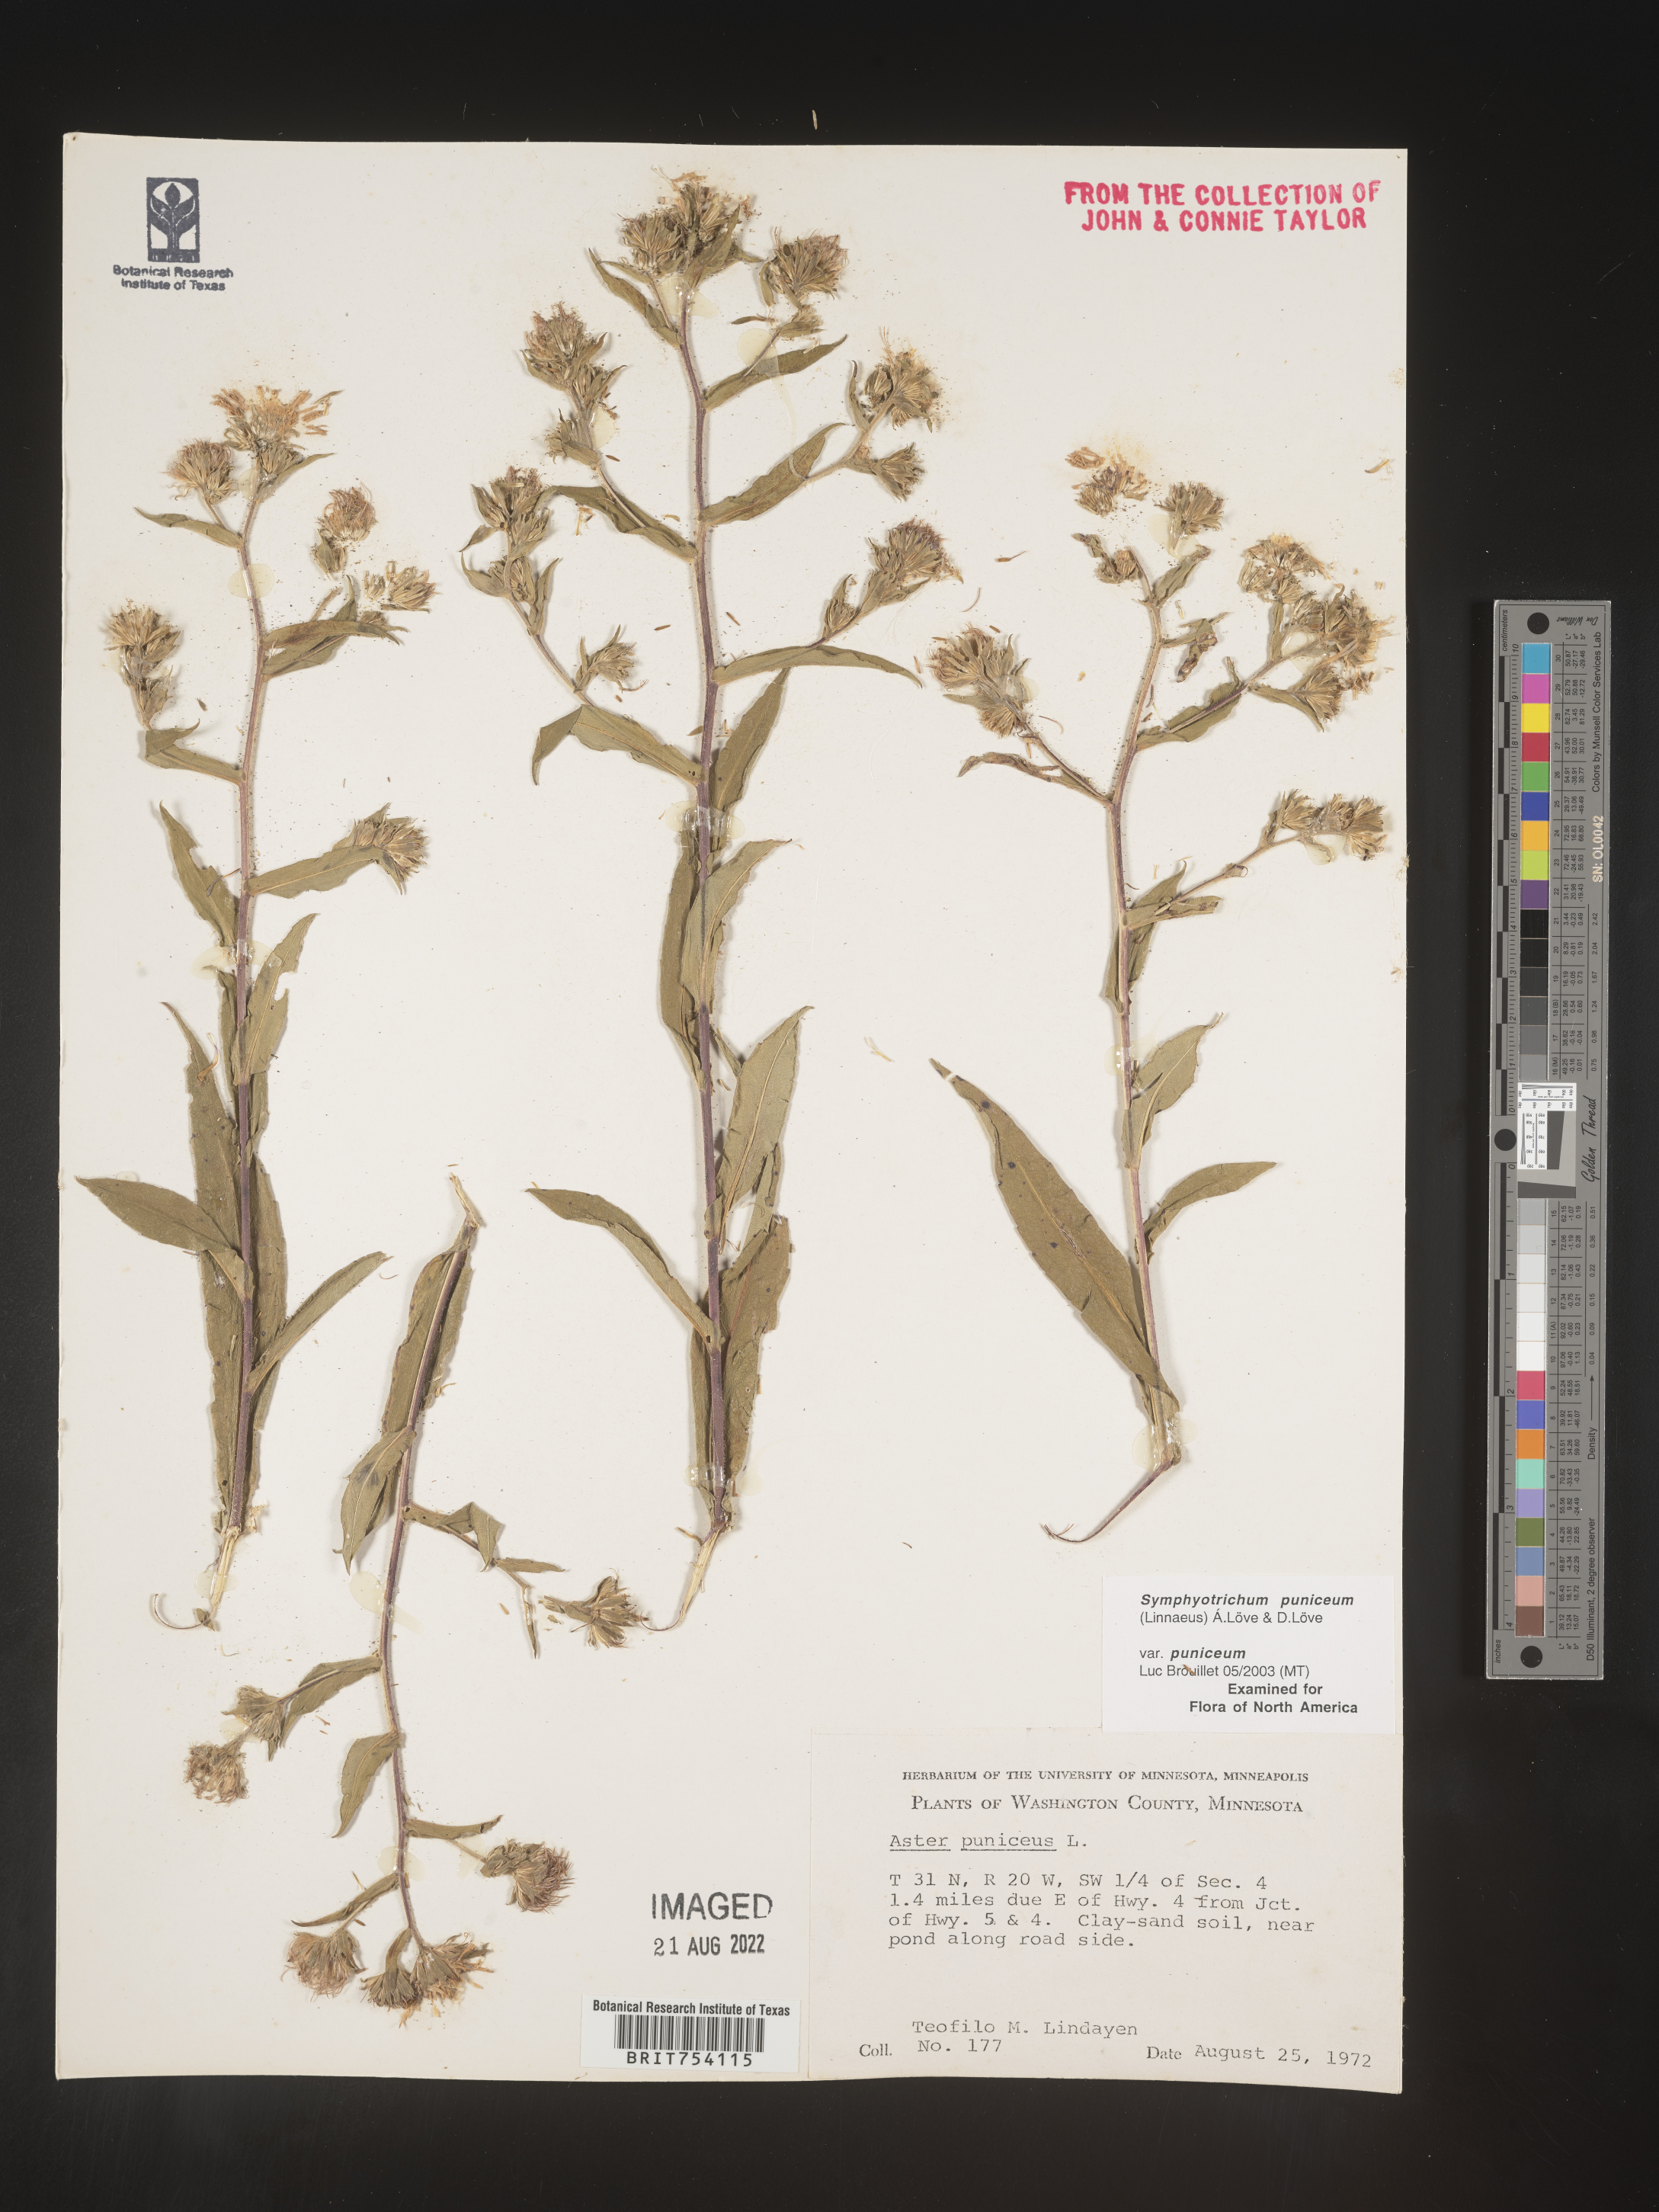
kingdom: Plantae
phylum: Tracheophyta
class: Magnoliopsida
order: Asterales
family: Asteraceae
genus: Symphyotrichum
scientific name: Symphyotrichum puniceum
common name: Bog aster
